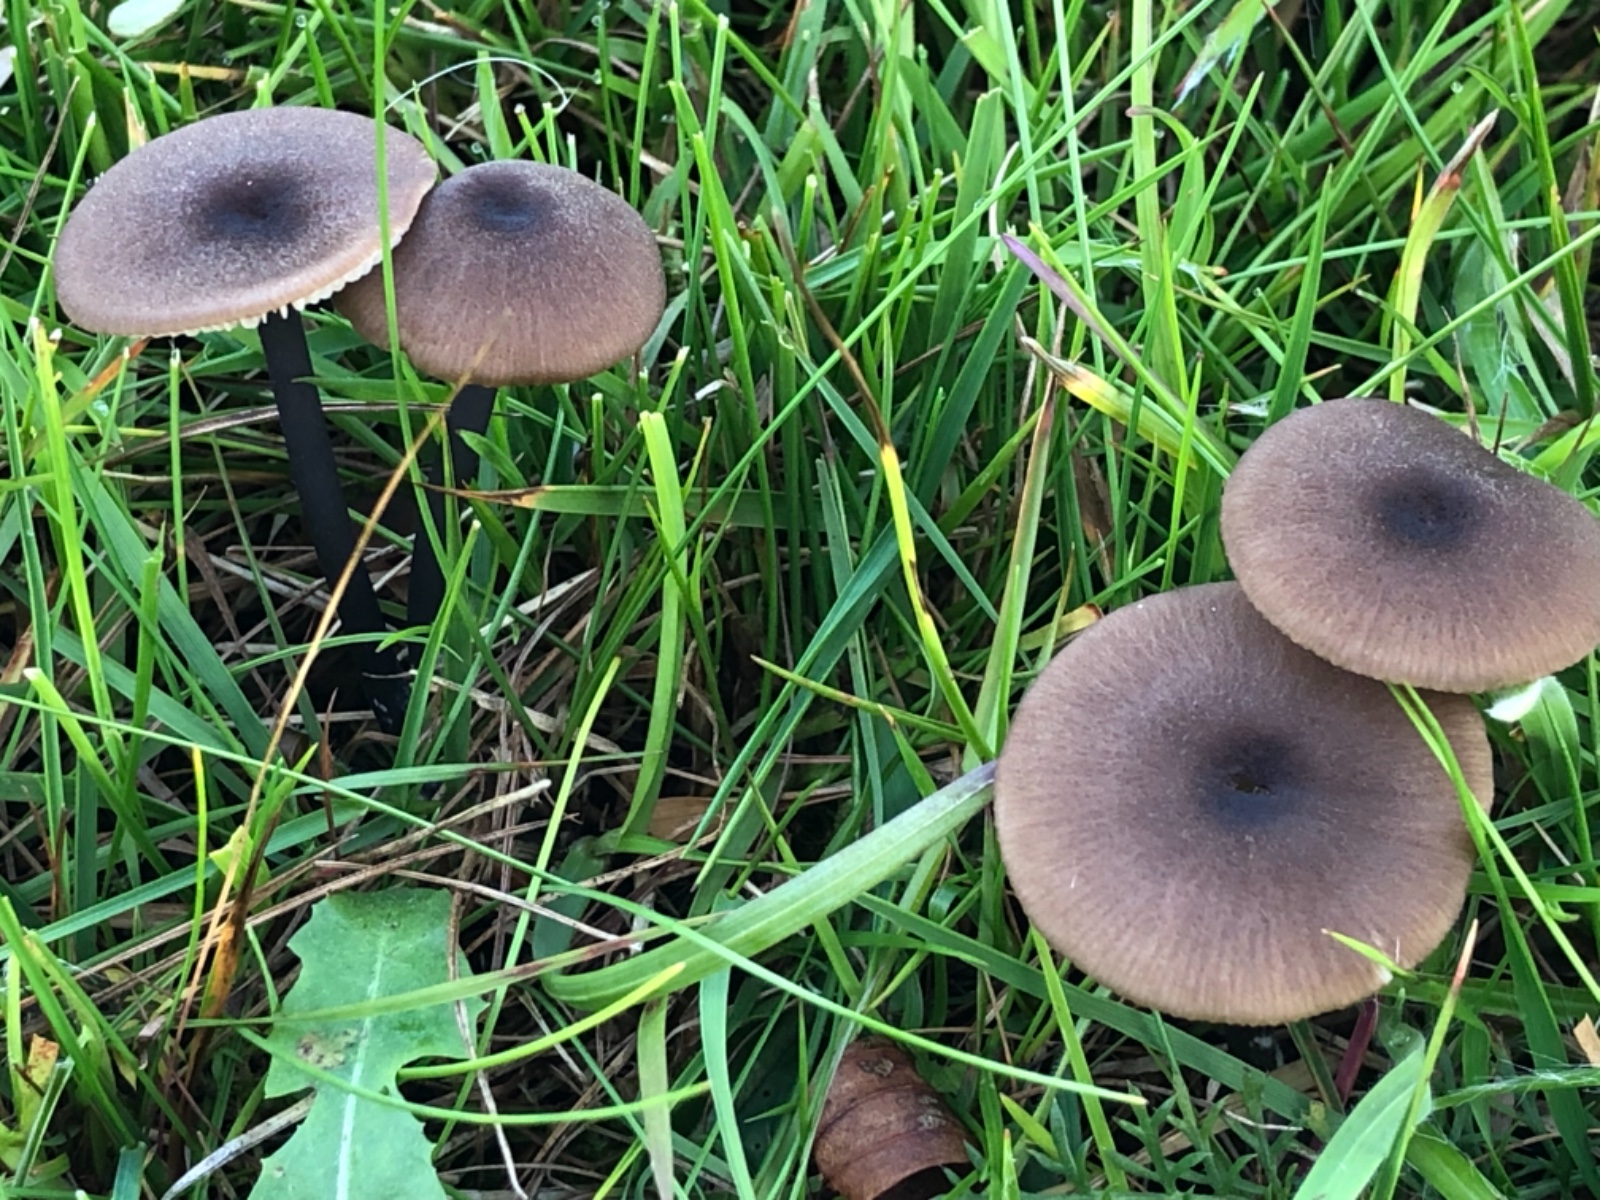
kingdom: Fungi
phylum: Basidiomycota
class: Agaricomycetes
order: Agaricales
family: Entolomataceae
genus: Entoloma
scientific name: Entoloma asprellum
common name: ru rødblad
